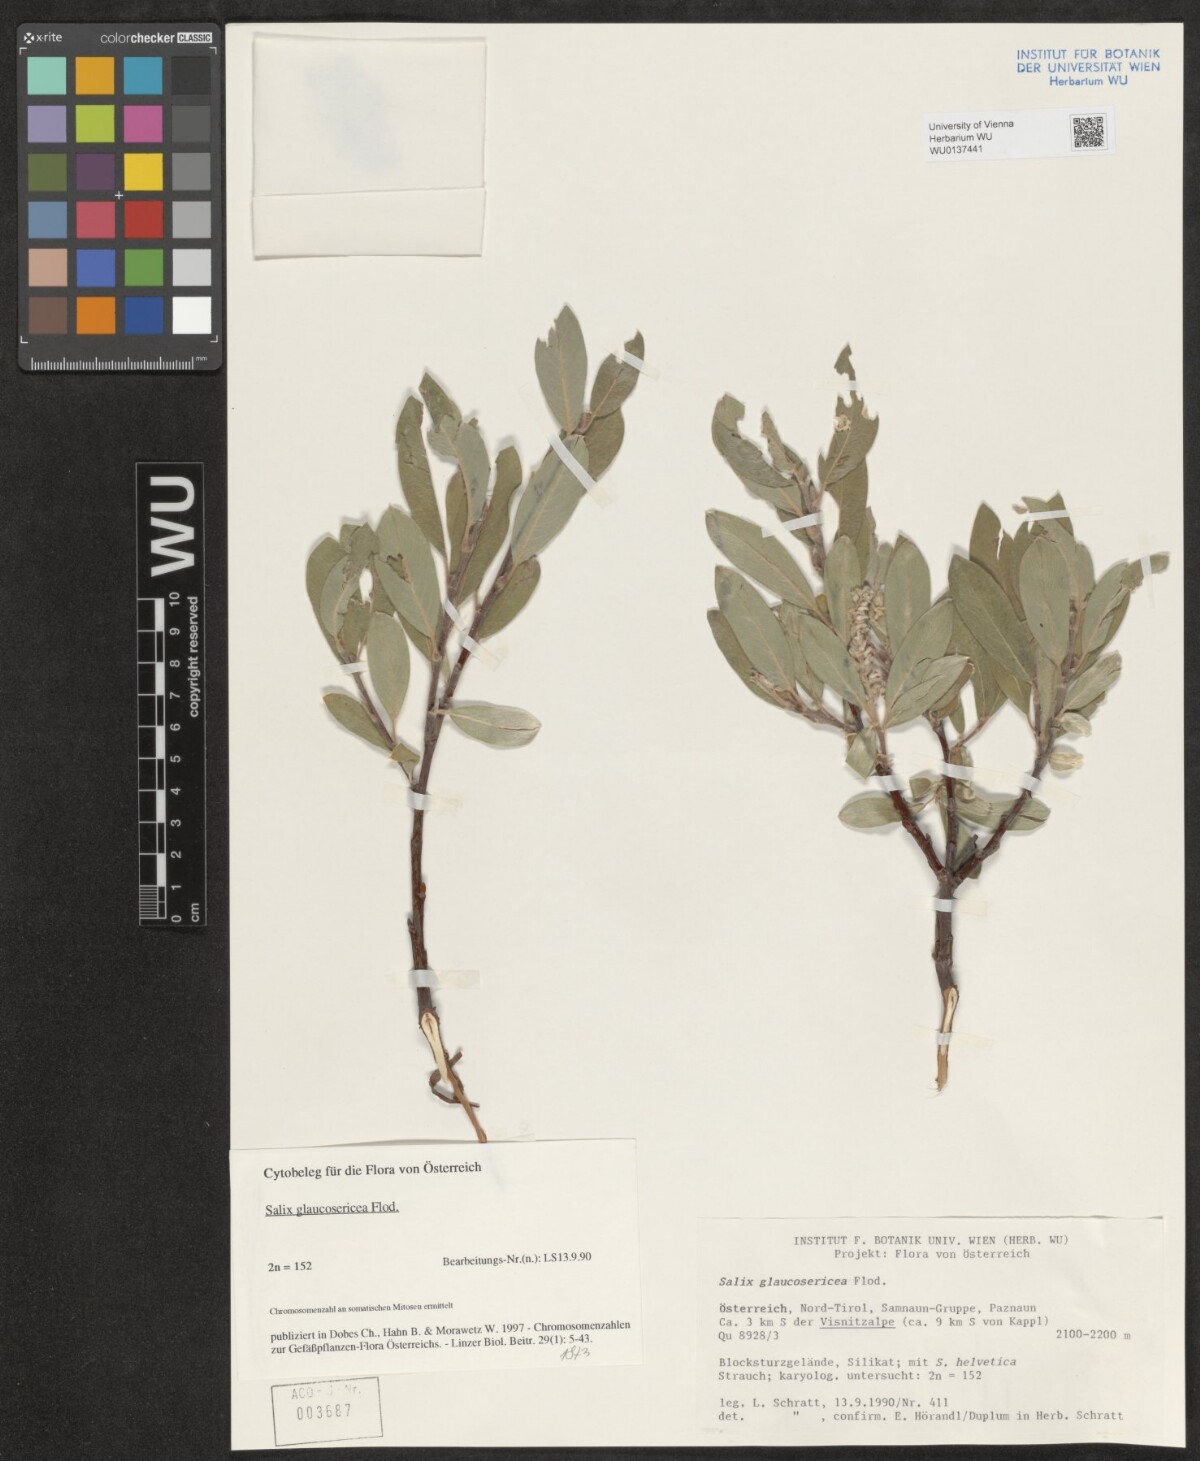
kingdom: Plantae
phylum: Tracheophyta
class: Magnoliopsida
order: Malpighiales
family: Salicaceae
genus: Salix
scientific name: Salix glaucosericea
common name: Alpine gray willow
